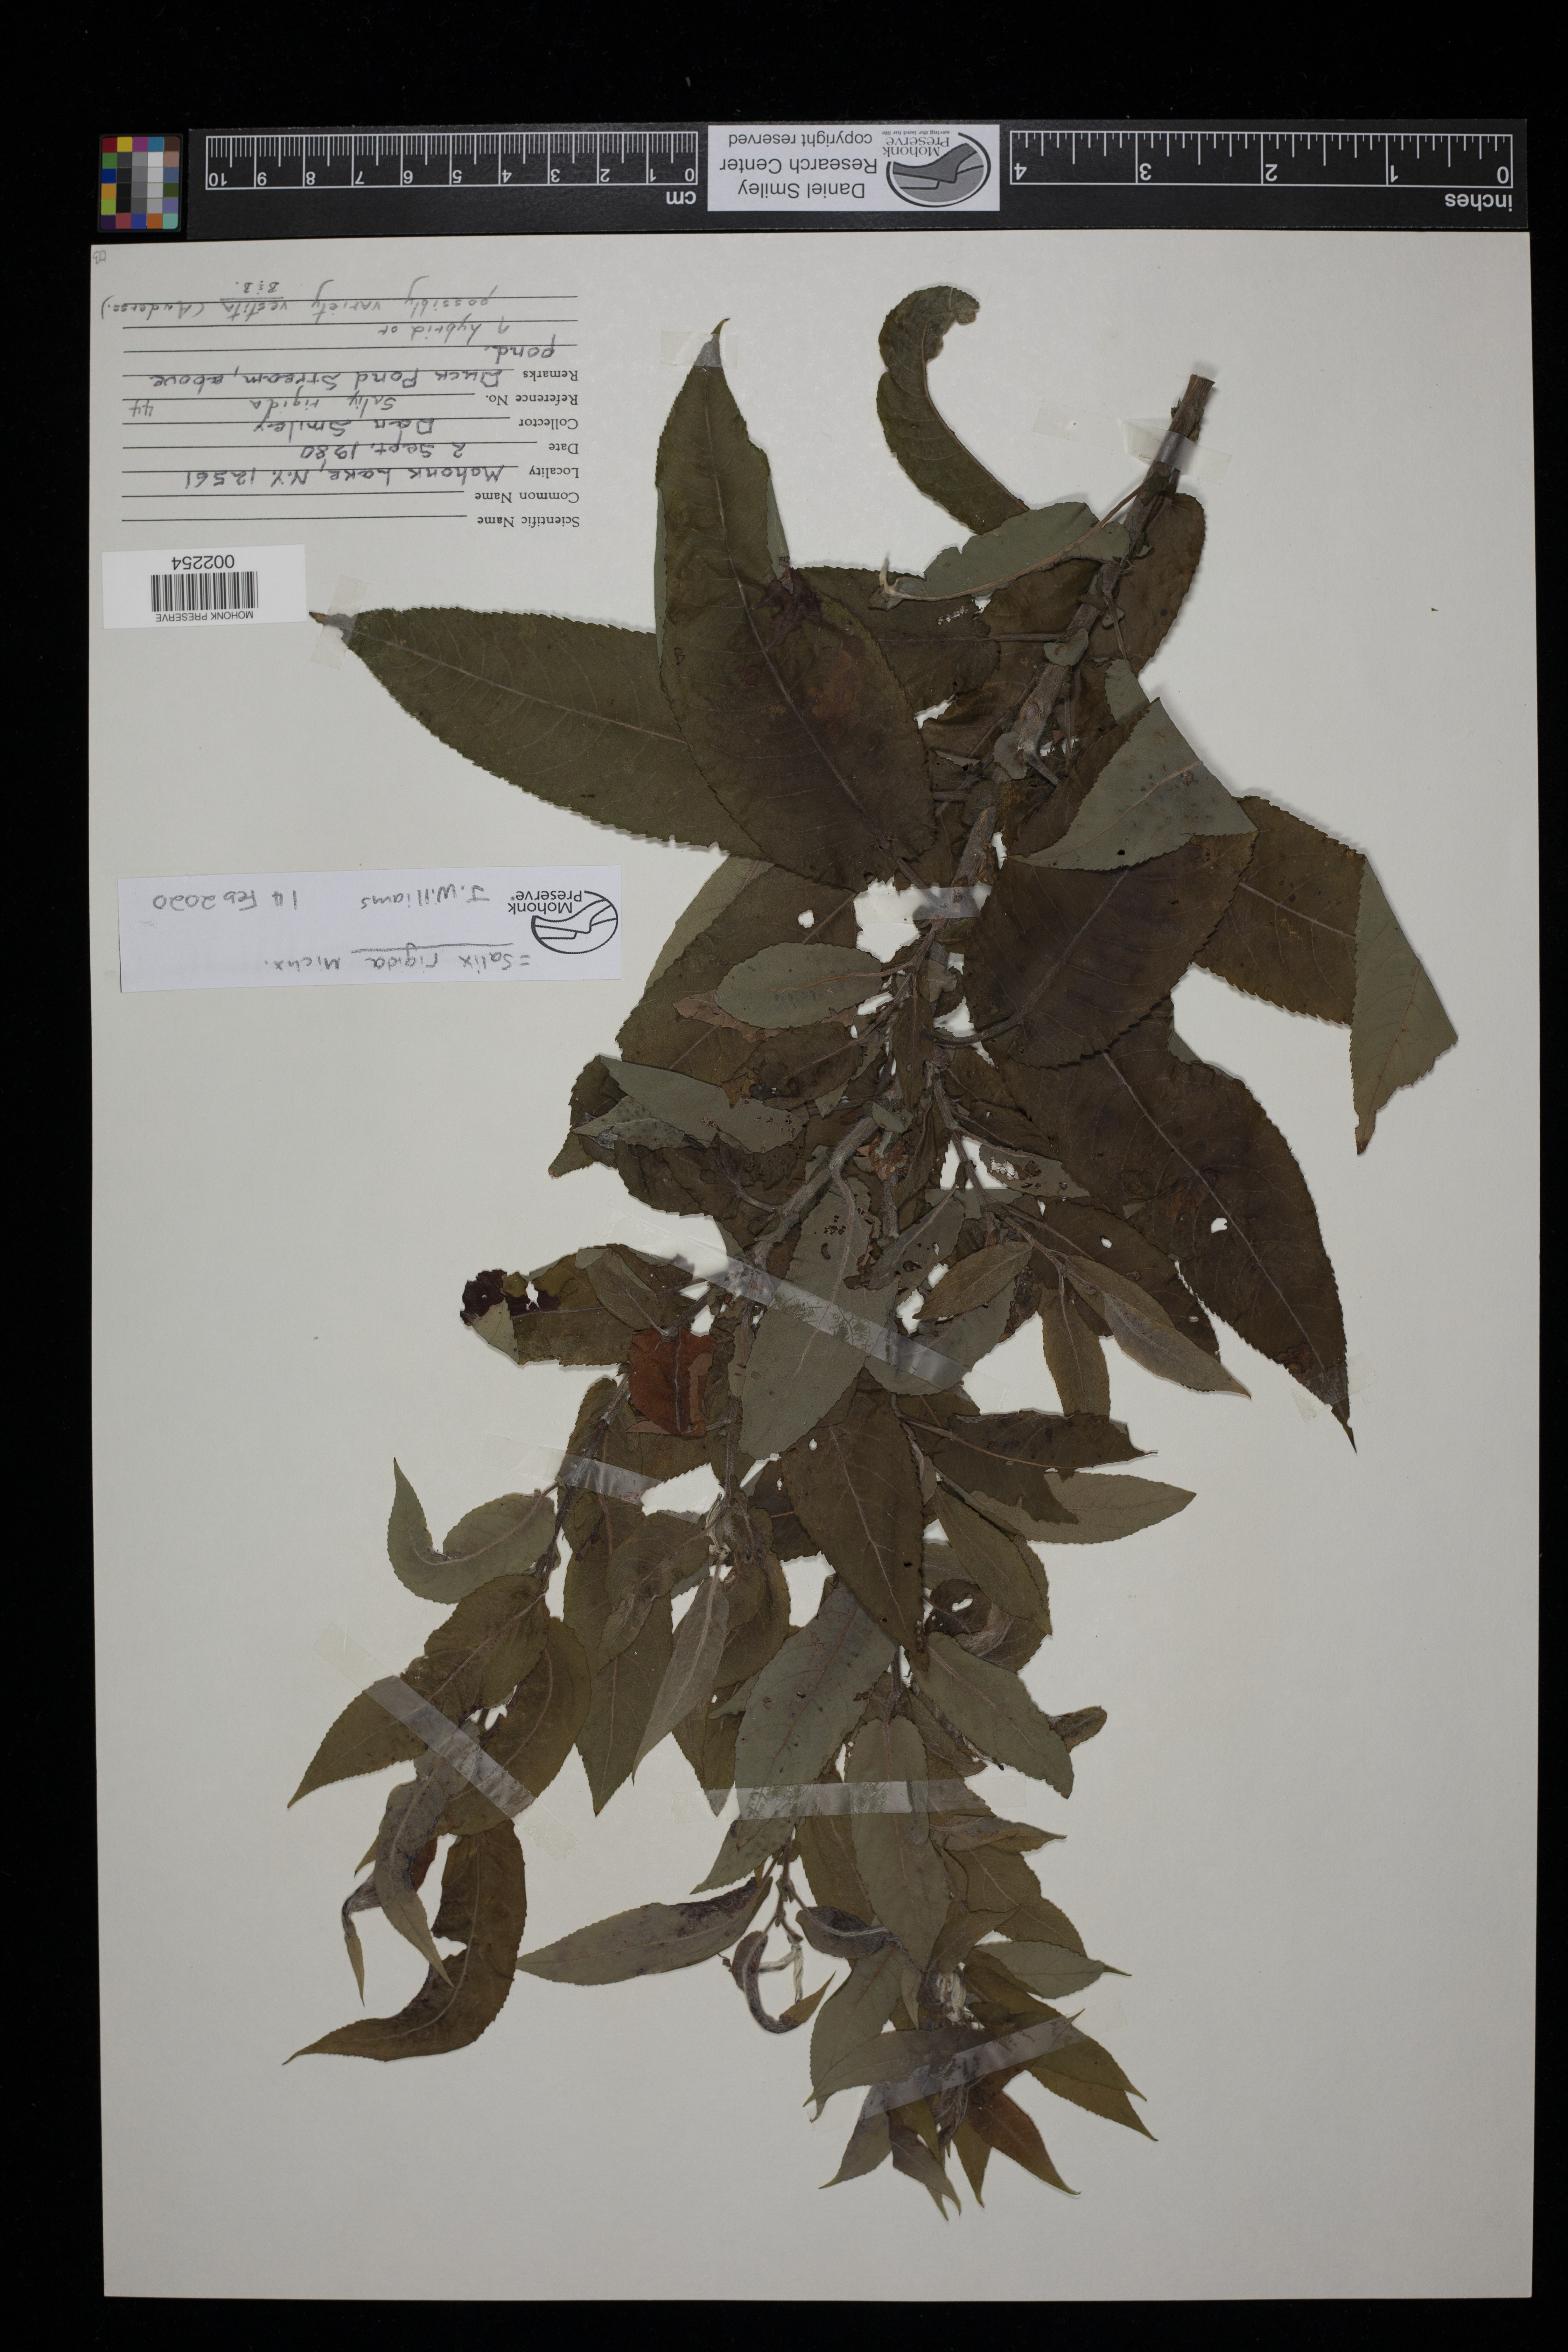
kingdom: Plantae
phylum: Tracheophyta
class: Magnoliopsida
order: Malpighiales
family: Salicaceae
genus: Salix
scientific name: Salix eriocephala
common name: Heart-leaved willow
